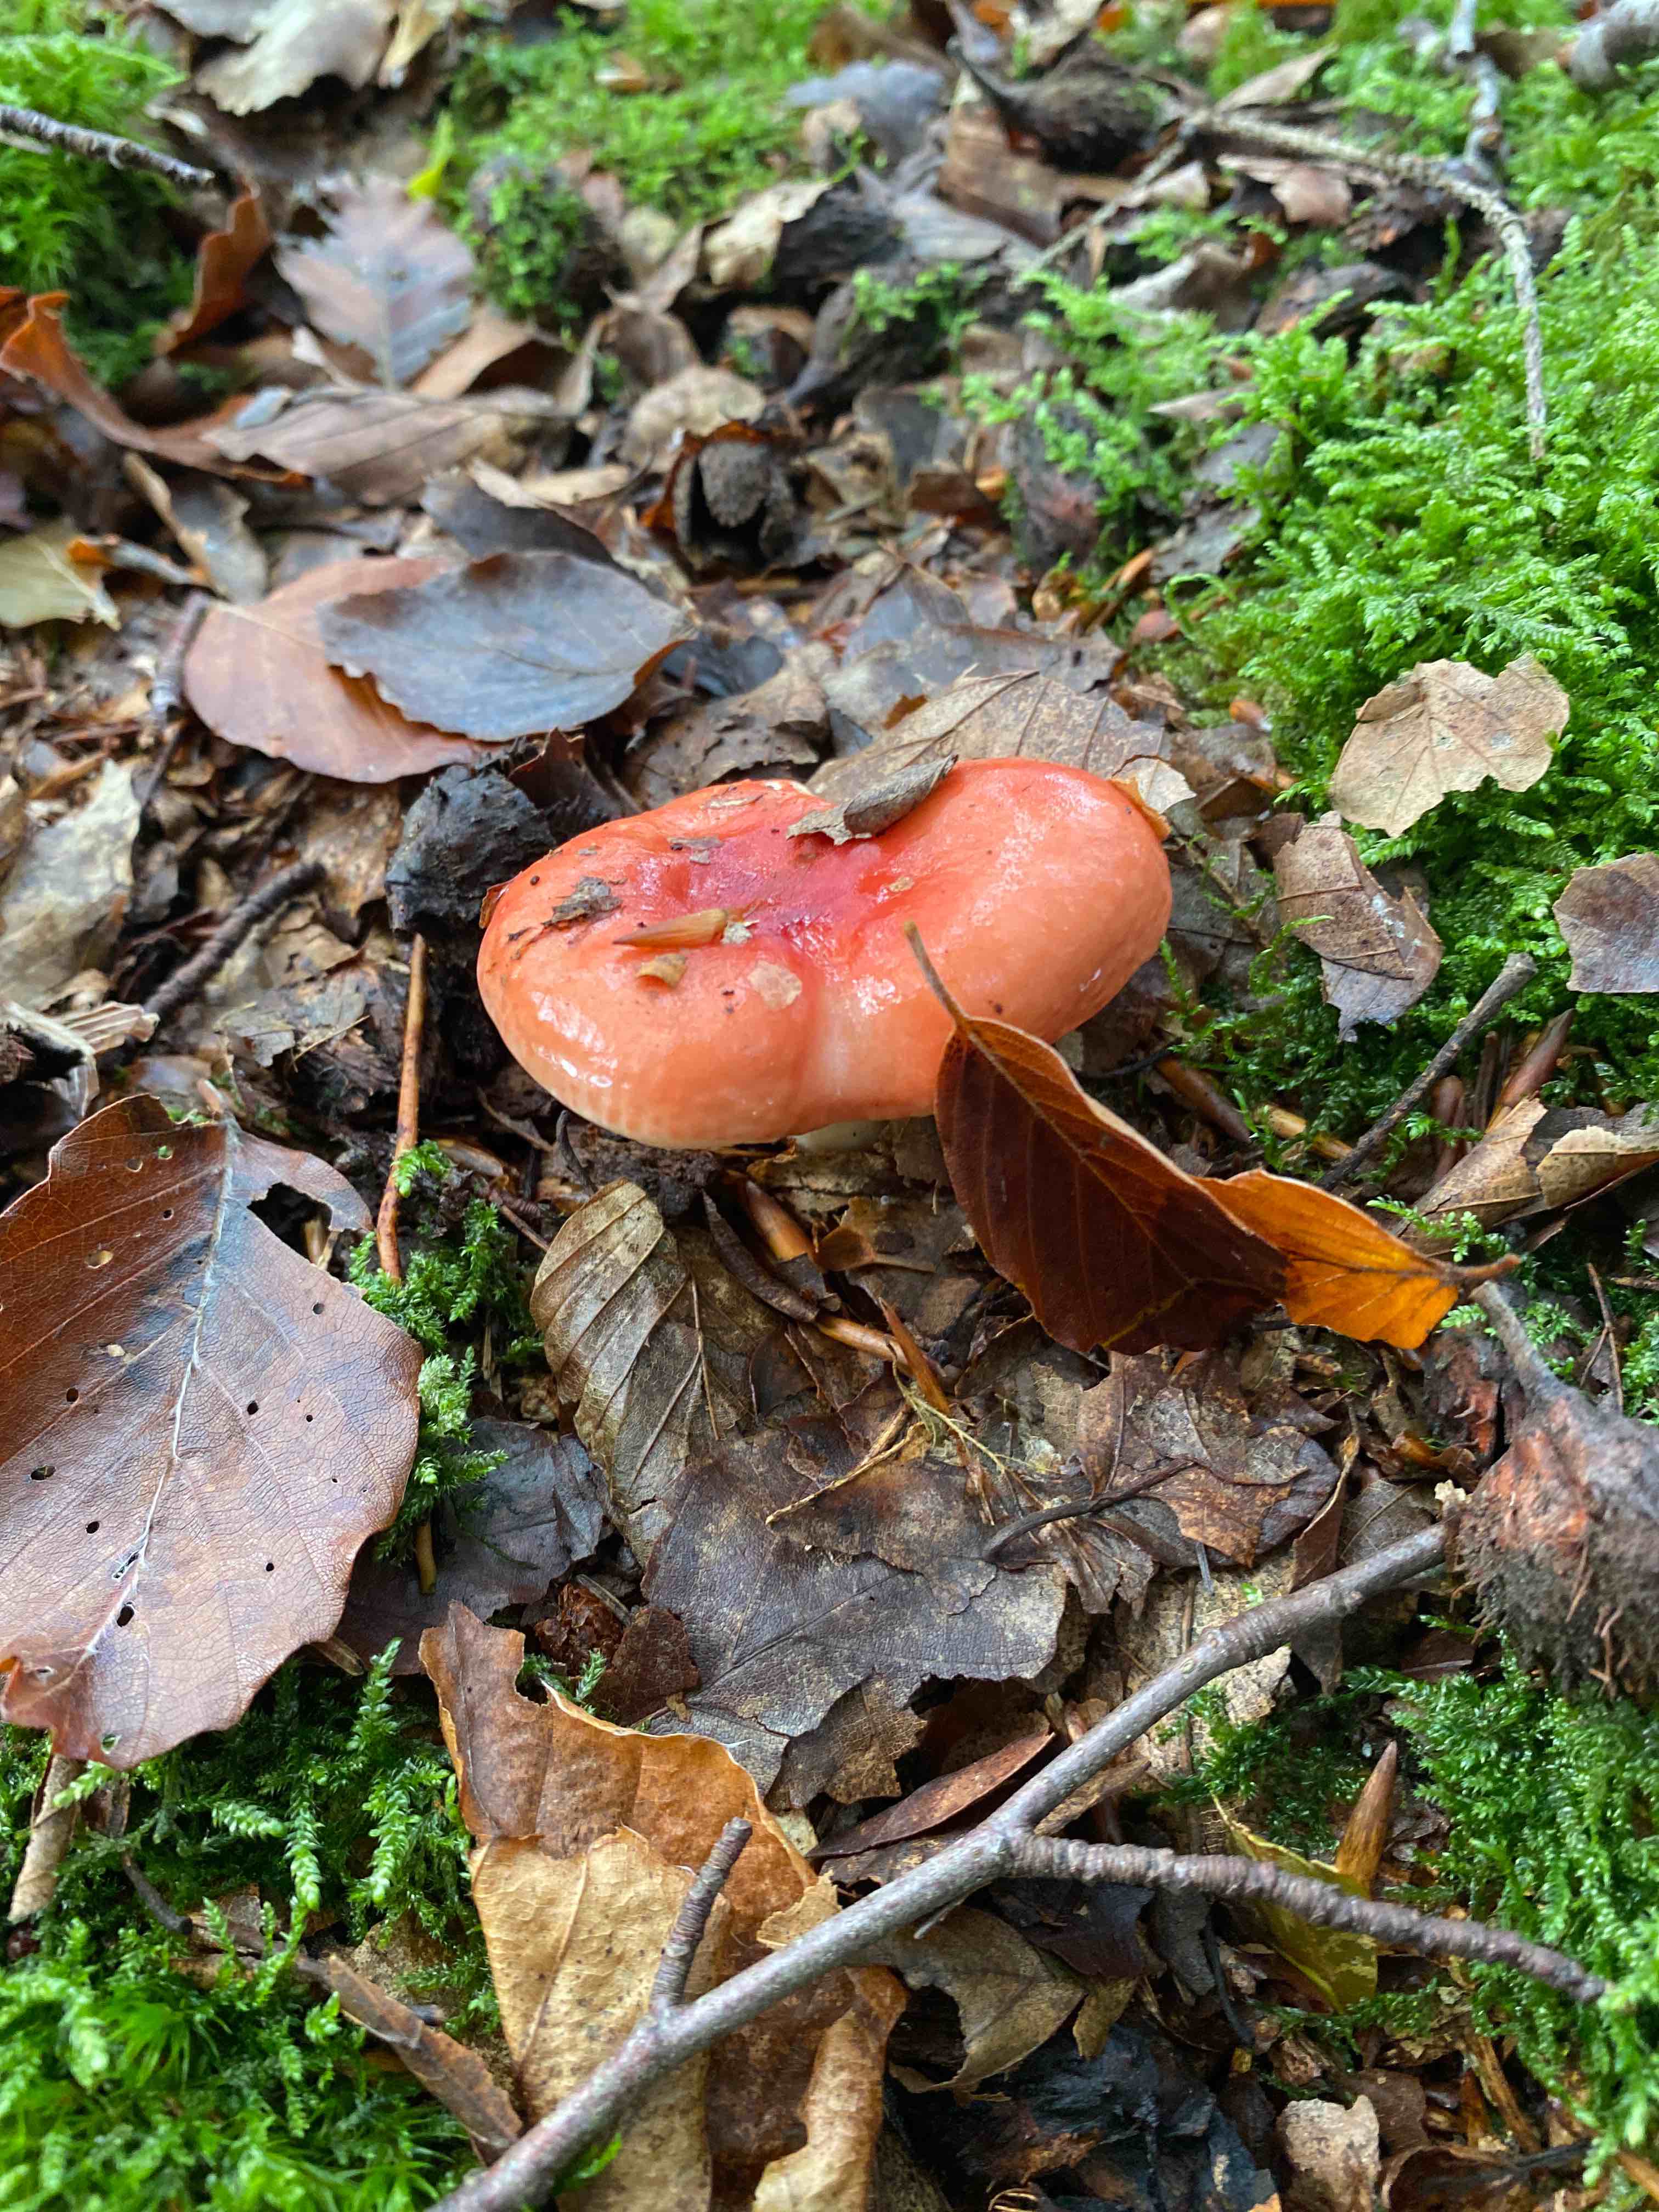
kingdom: Fungi
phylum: Basidiomycota
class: Agaricomycetes
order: Russulales
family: Russulaceae
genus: Russula
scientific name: Russula
